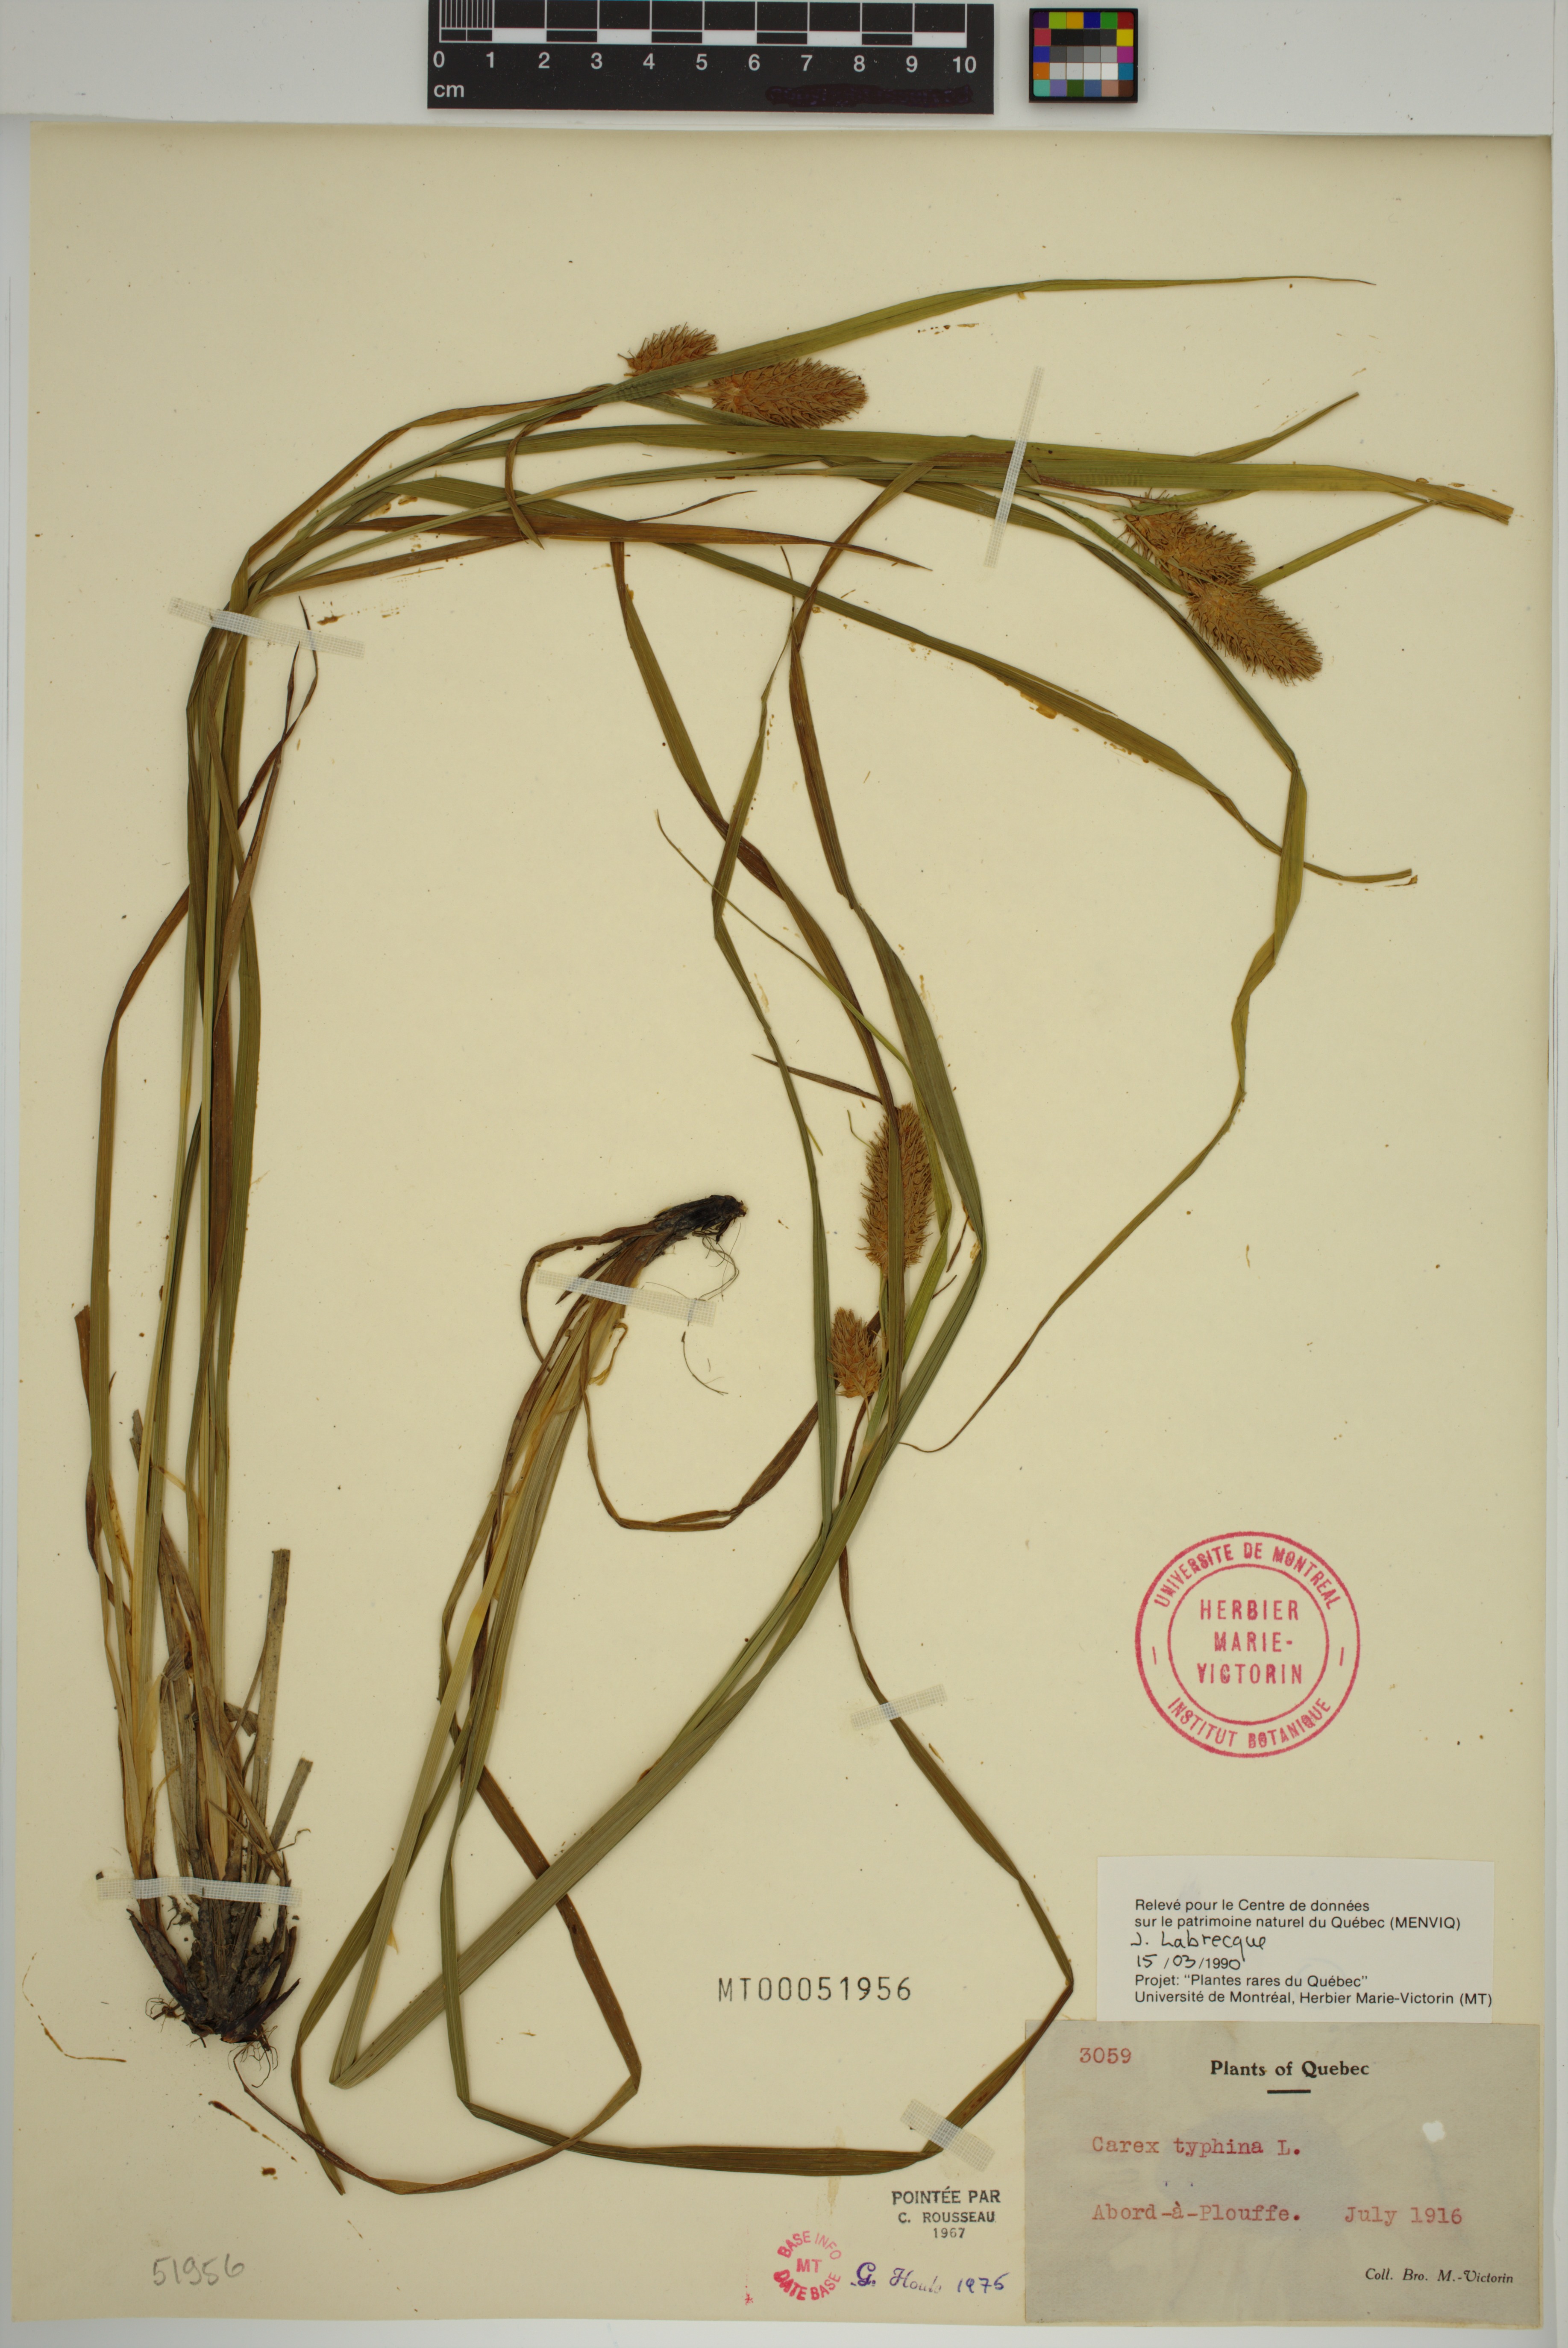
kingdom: Plantae
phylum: Tracheophyta
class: Liliopsida
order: Poales
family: Cyperaceae
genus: Carex
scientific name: Carex typhina
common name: Cattail sedge
